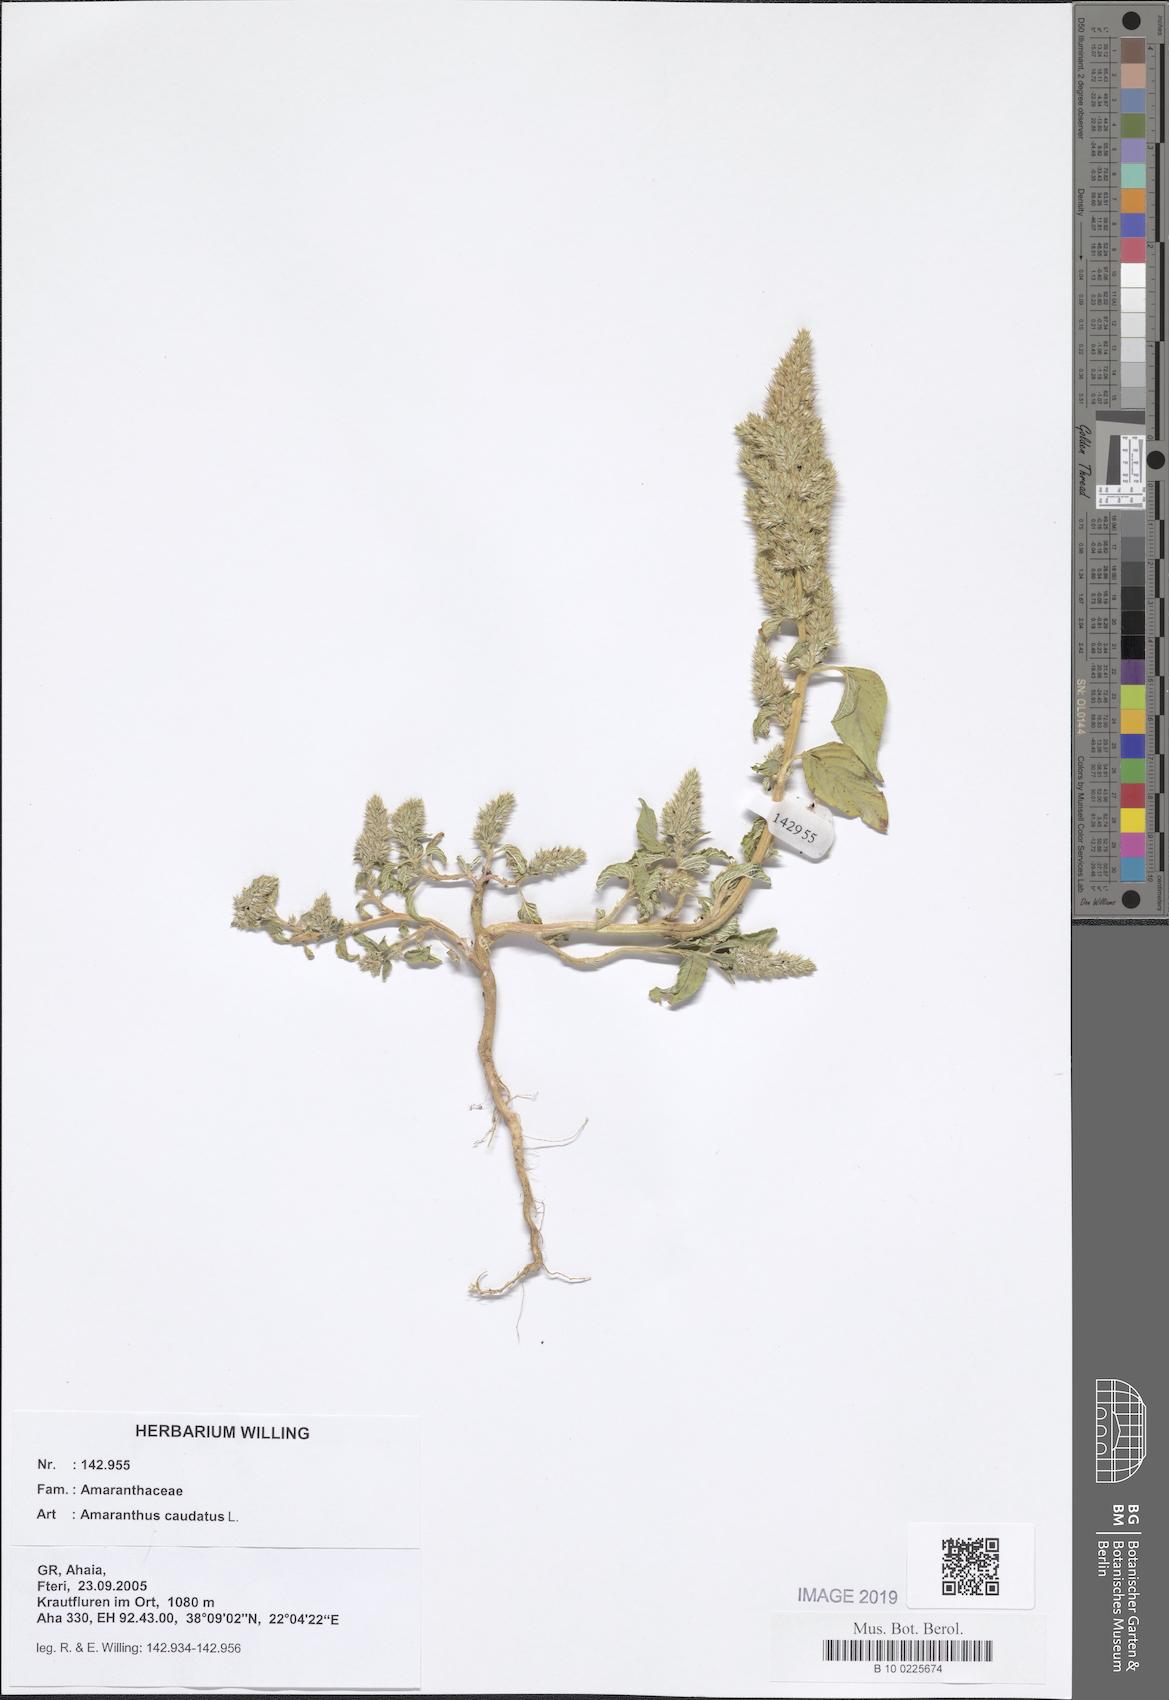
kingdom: Plantae
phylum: Tracheophyta
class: Magnoliopsida
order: Caryophyllales
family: Amaranthaceae
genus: Amaranthus
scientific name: Amaranthus caudatus
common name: Love-lies-bleeding
